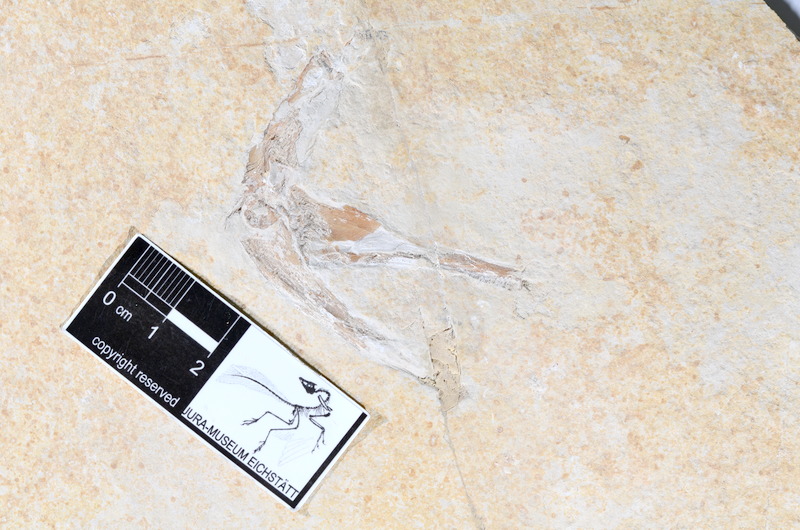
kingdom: Animalia
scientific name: Animalia
